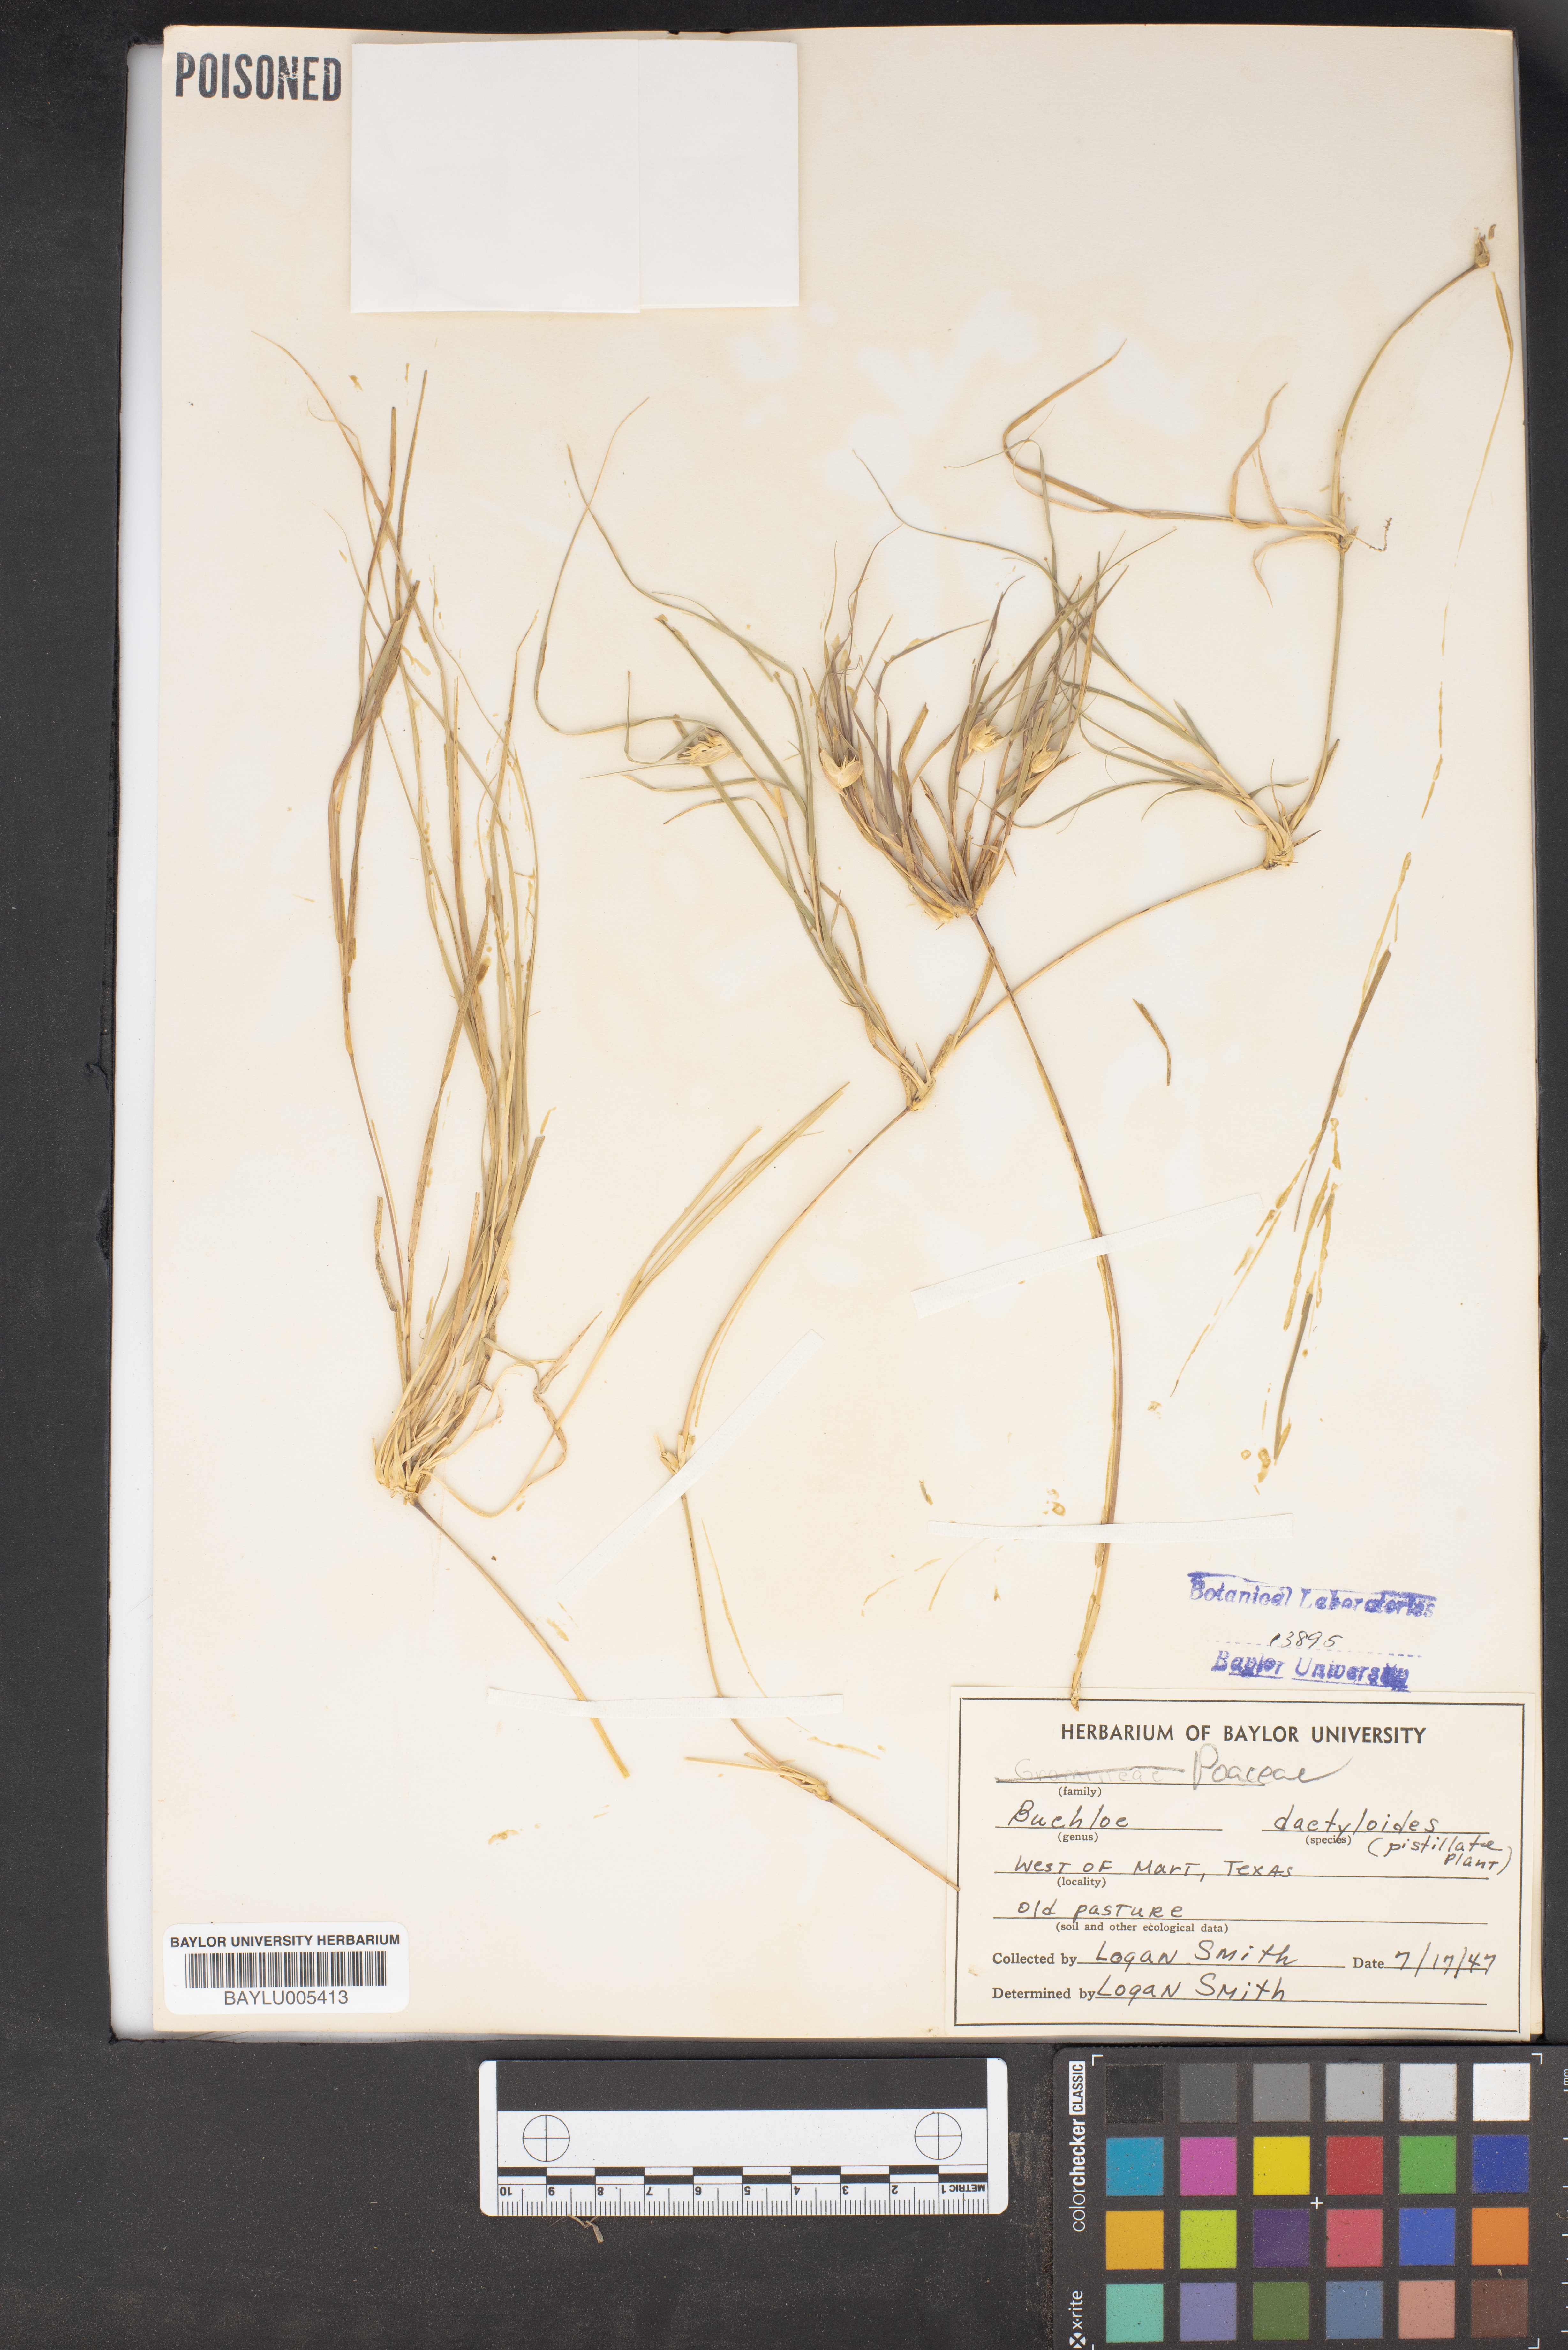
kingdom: Plantae
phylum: Tracheophyta
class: Liliopsida
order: Poales
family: Poaceae
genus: Bouteloua
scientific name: Bouteloua dactyloides
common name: Buffalo grass
